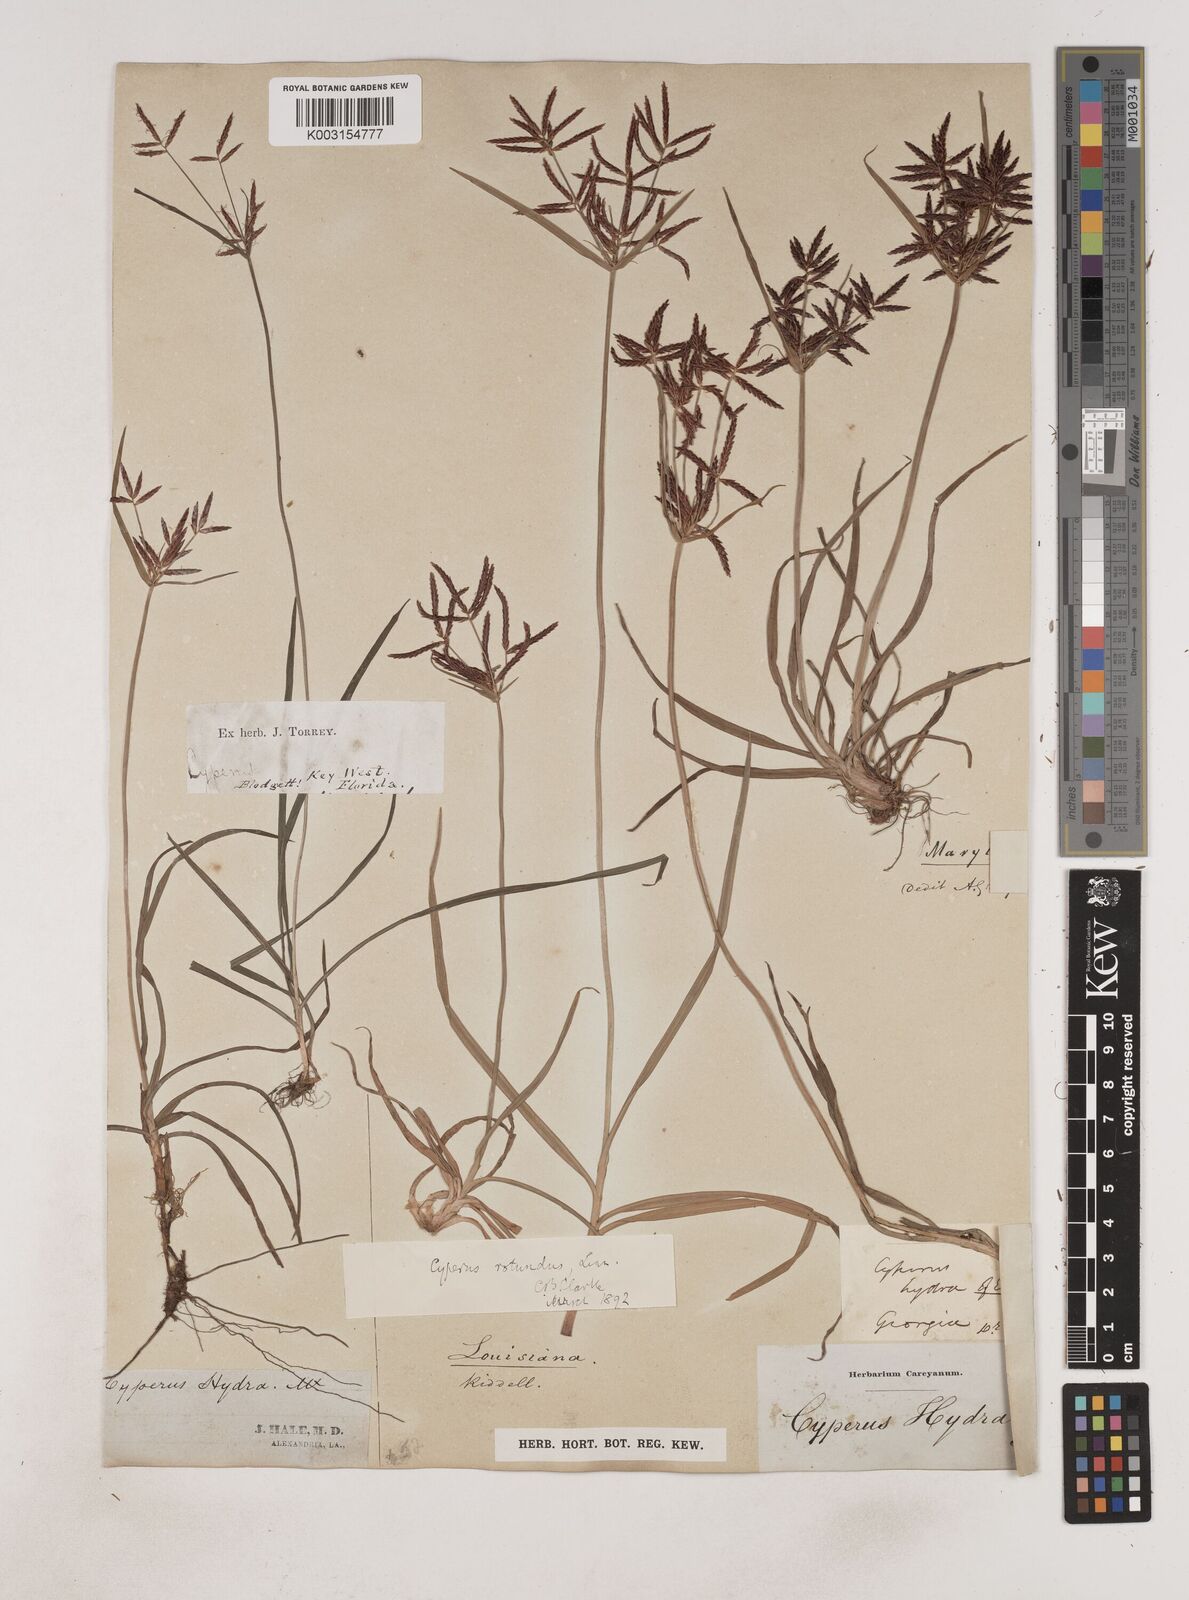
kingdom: Plantae
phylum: Tracheophyta
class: Liliopsida
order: Poales
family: Cyperaceae
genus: Cyperus
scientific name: Cyperus rotundus
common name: Nutgrass
